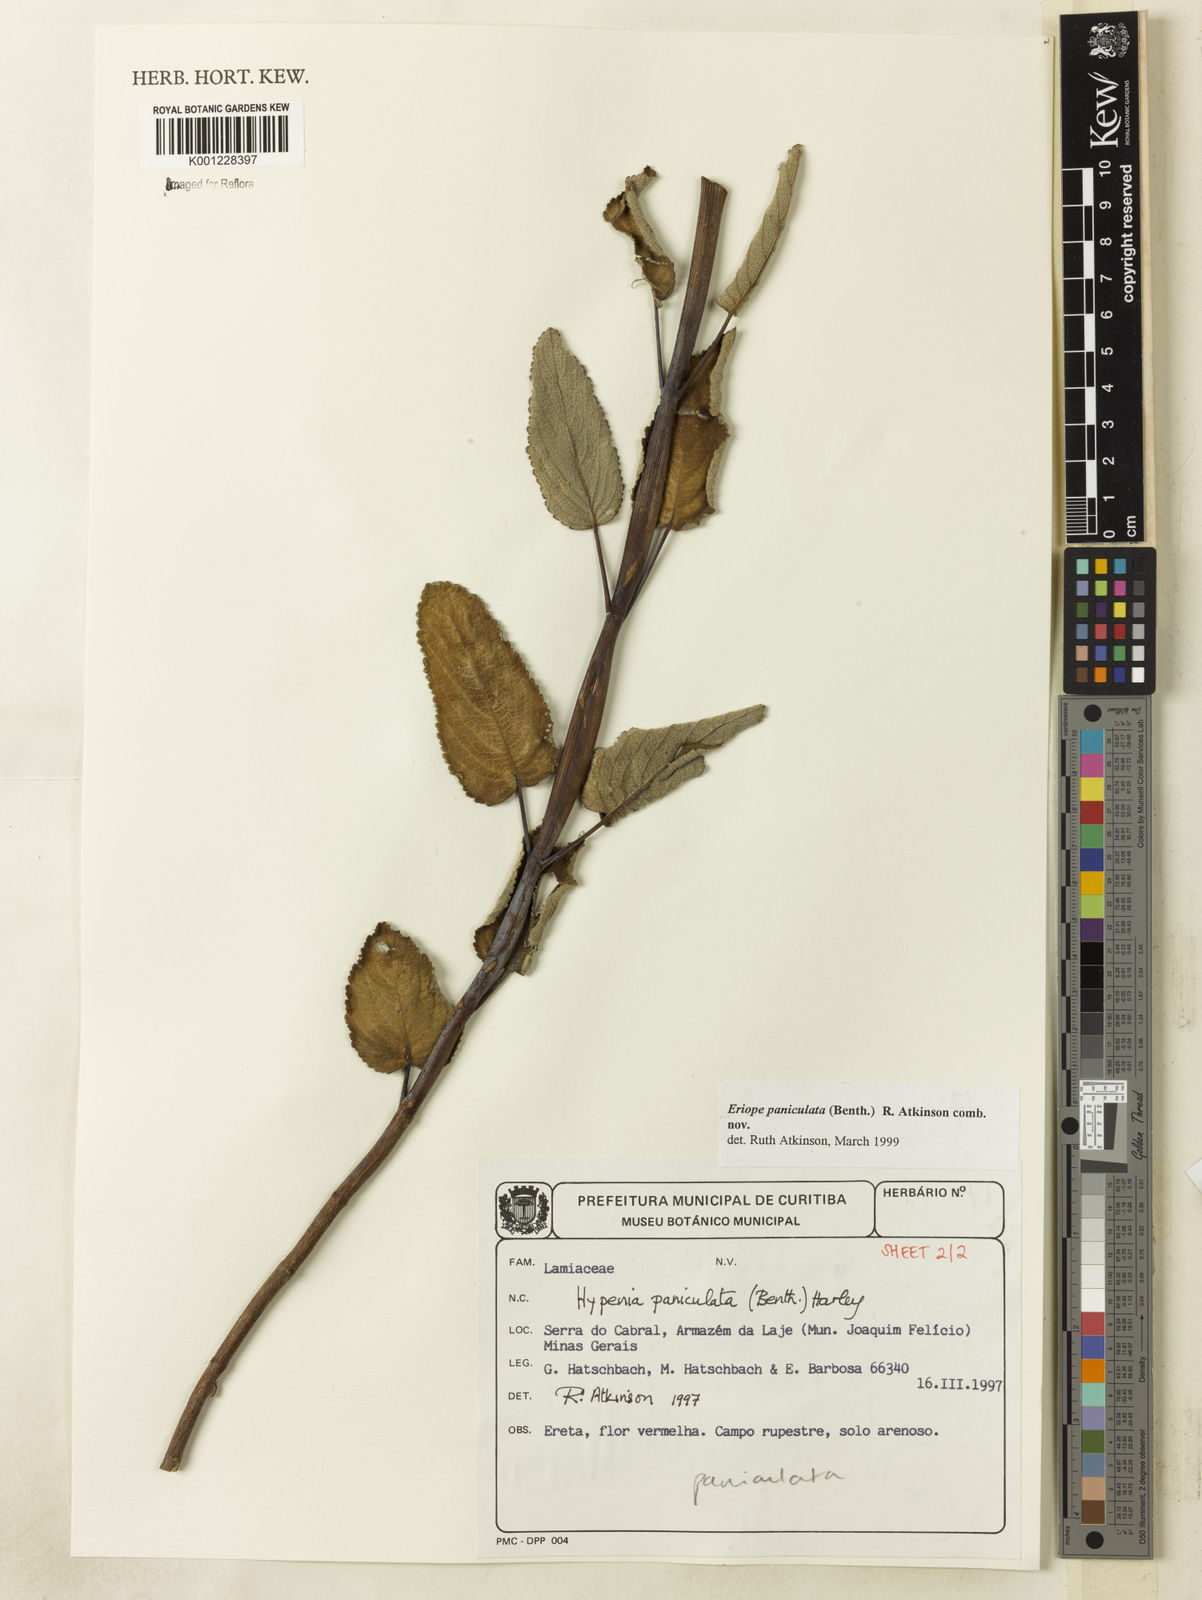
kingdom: Plantae
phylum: Tracheophyta
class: Magnoliopsida
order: Lamiales
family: Lamiaceae
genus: Hypenia
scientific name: Hypenia paniculata
